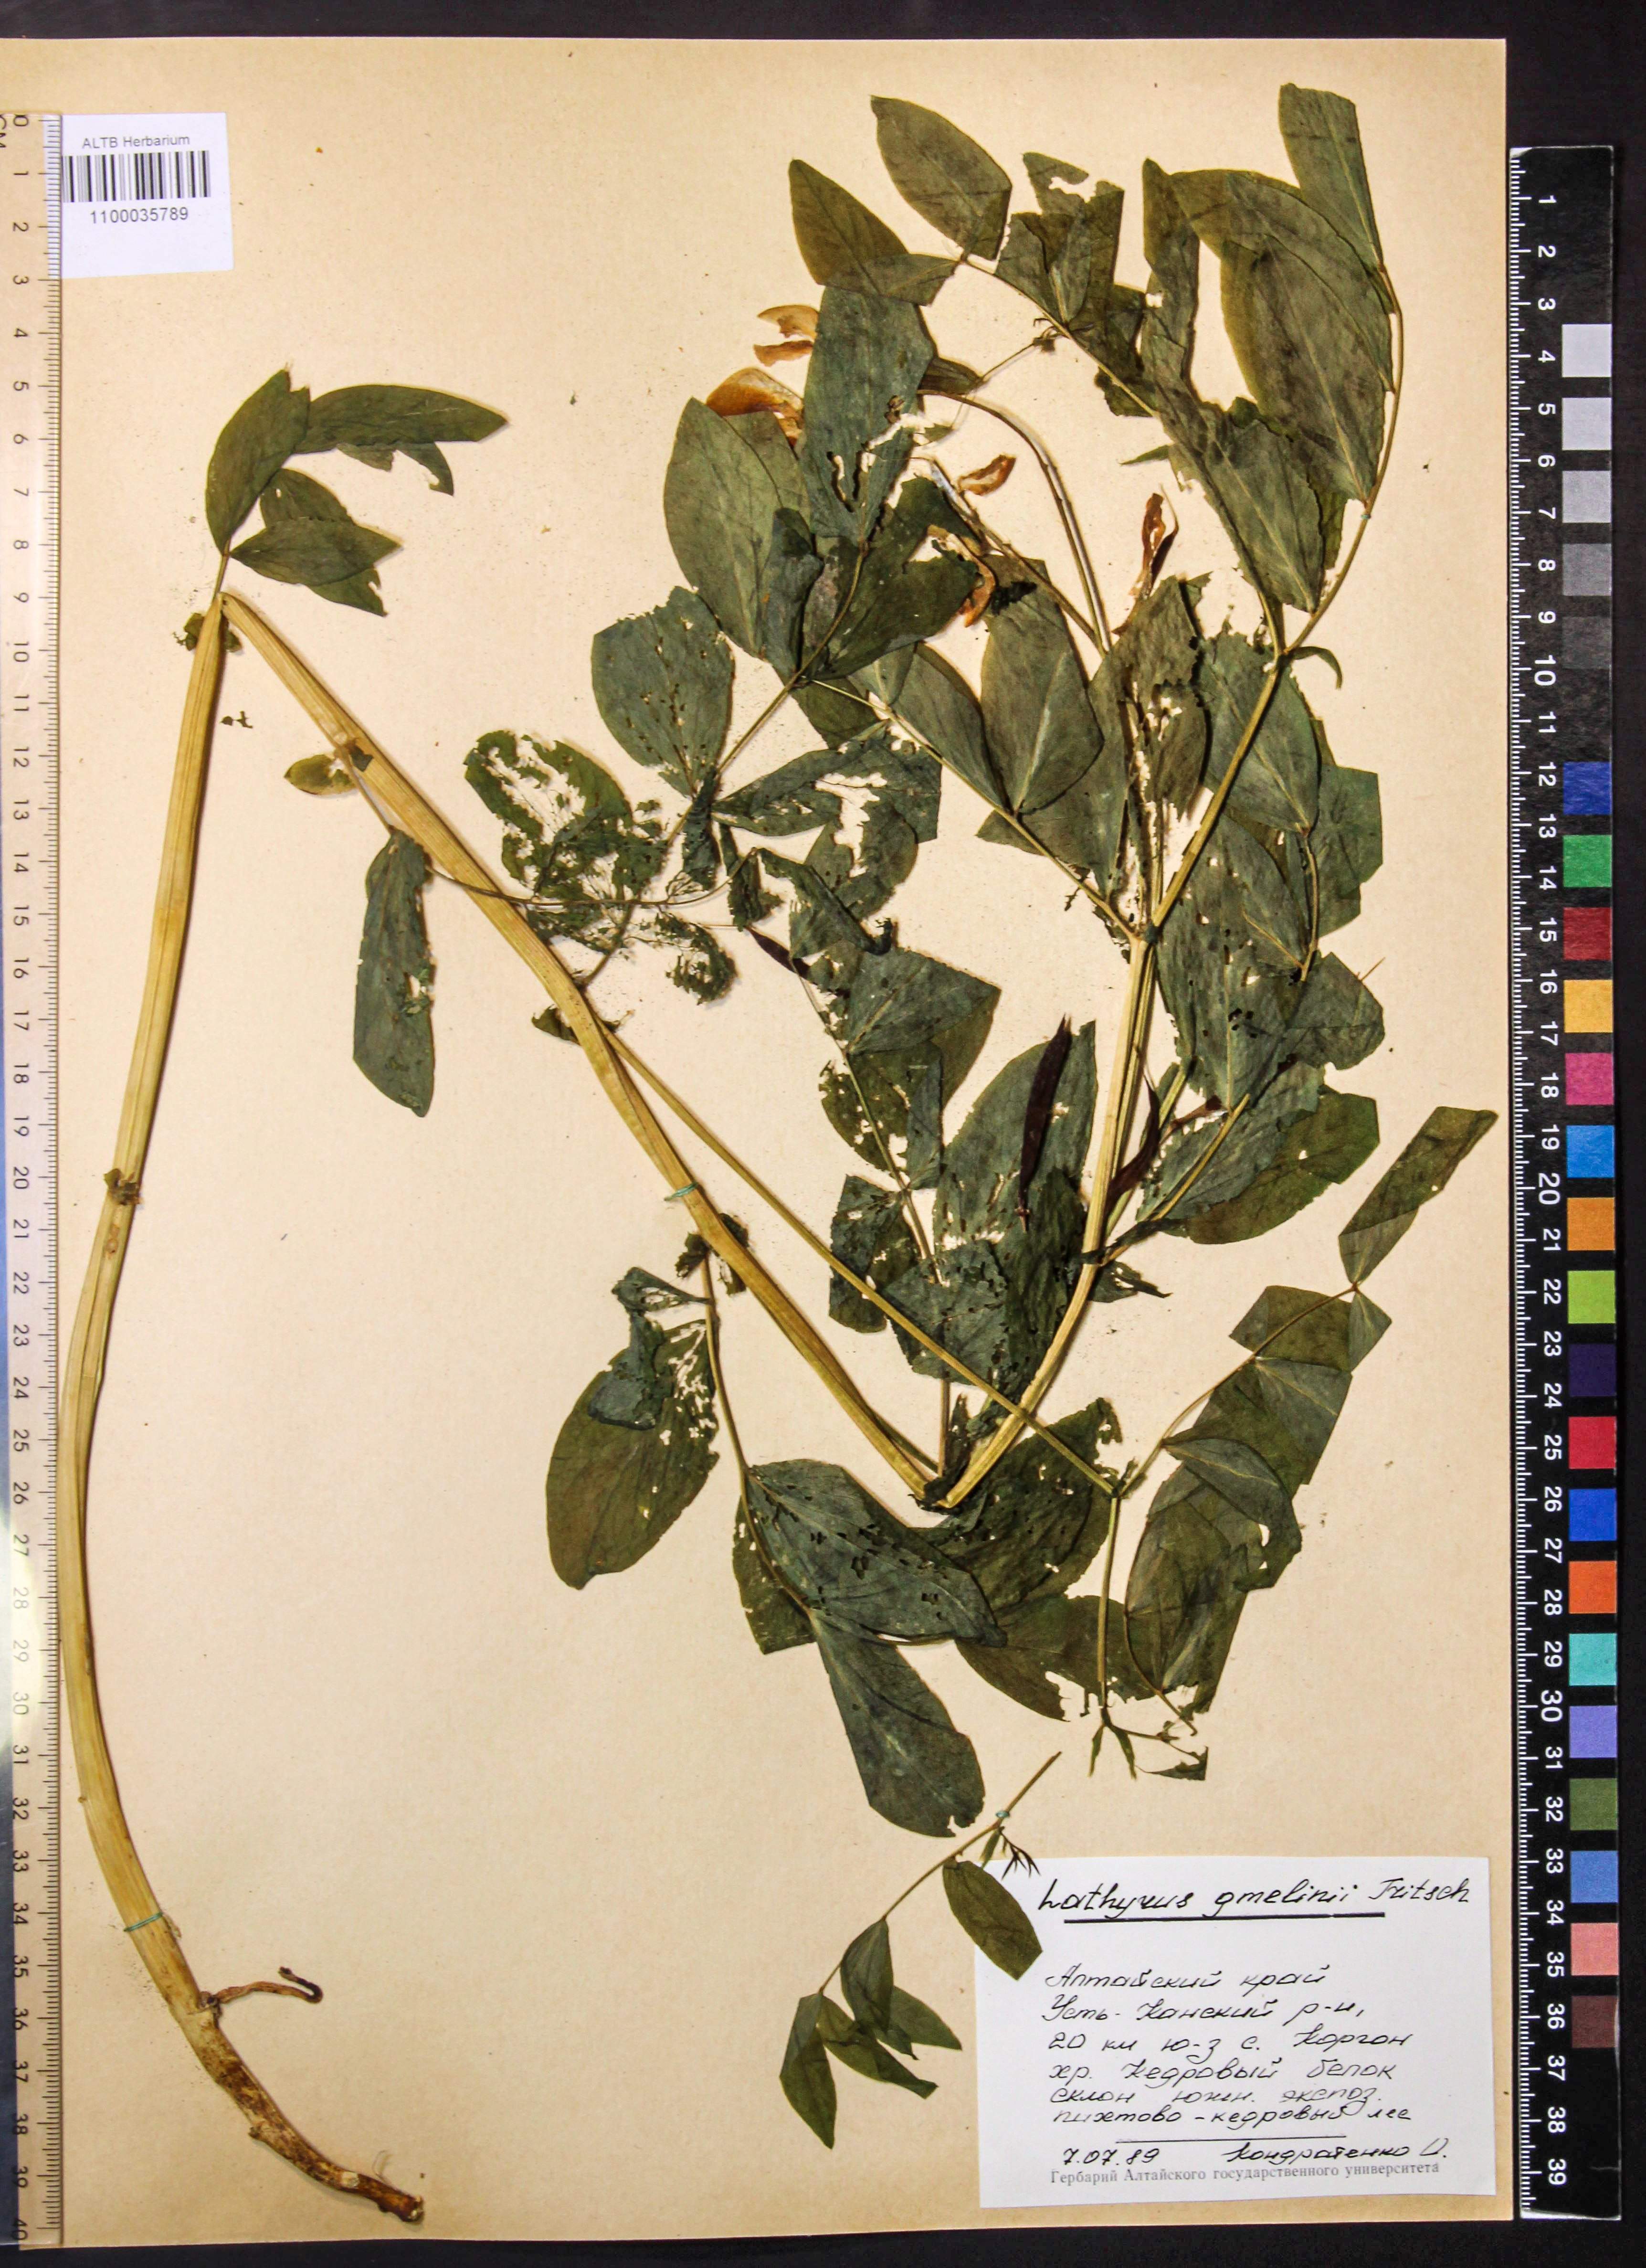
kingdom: Plantae
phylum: Tracheophyta
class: Magnoliopsida
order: Fabales
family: Fabaceae
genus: Lathyrus
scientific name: Lathyrus gmelinii
